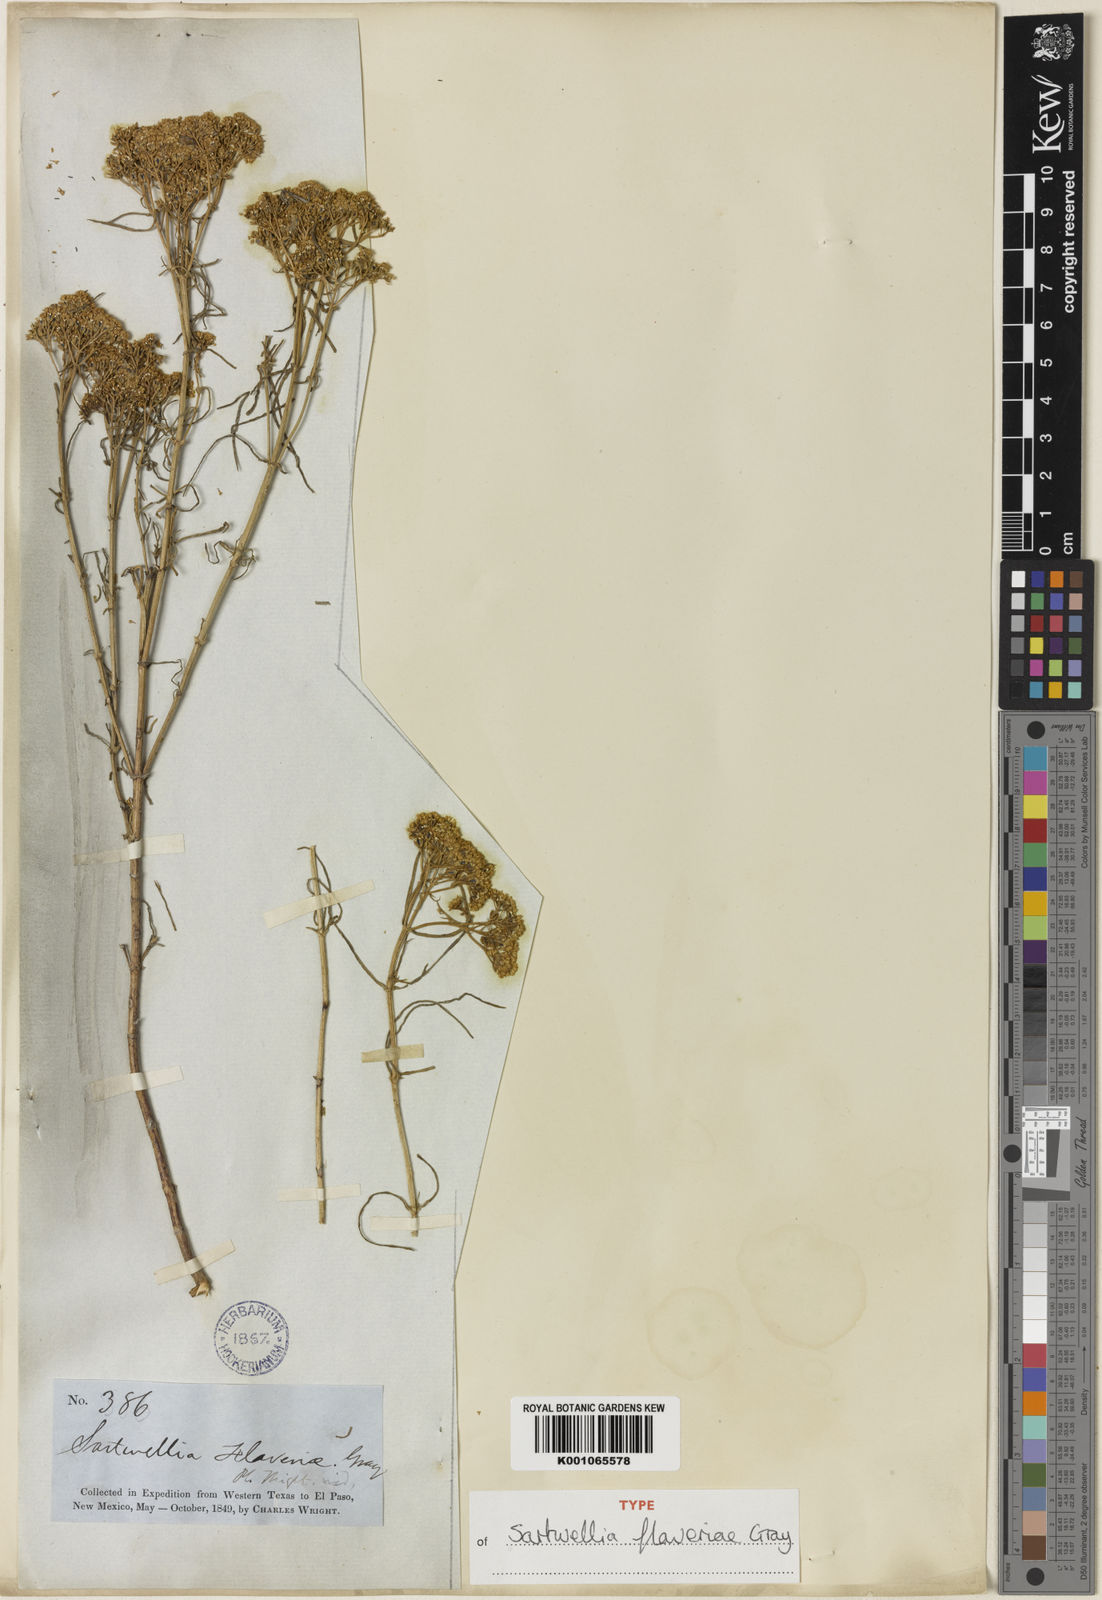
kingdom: Plantae
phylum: Tracheophyta
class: Magnoliopsida
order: Asterales
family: Asteraceae
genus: Sartwellia
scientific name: Sartwellia flaveriae
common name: Sartwellia
